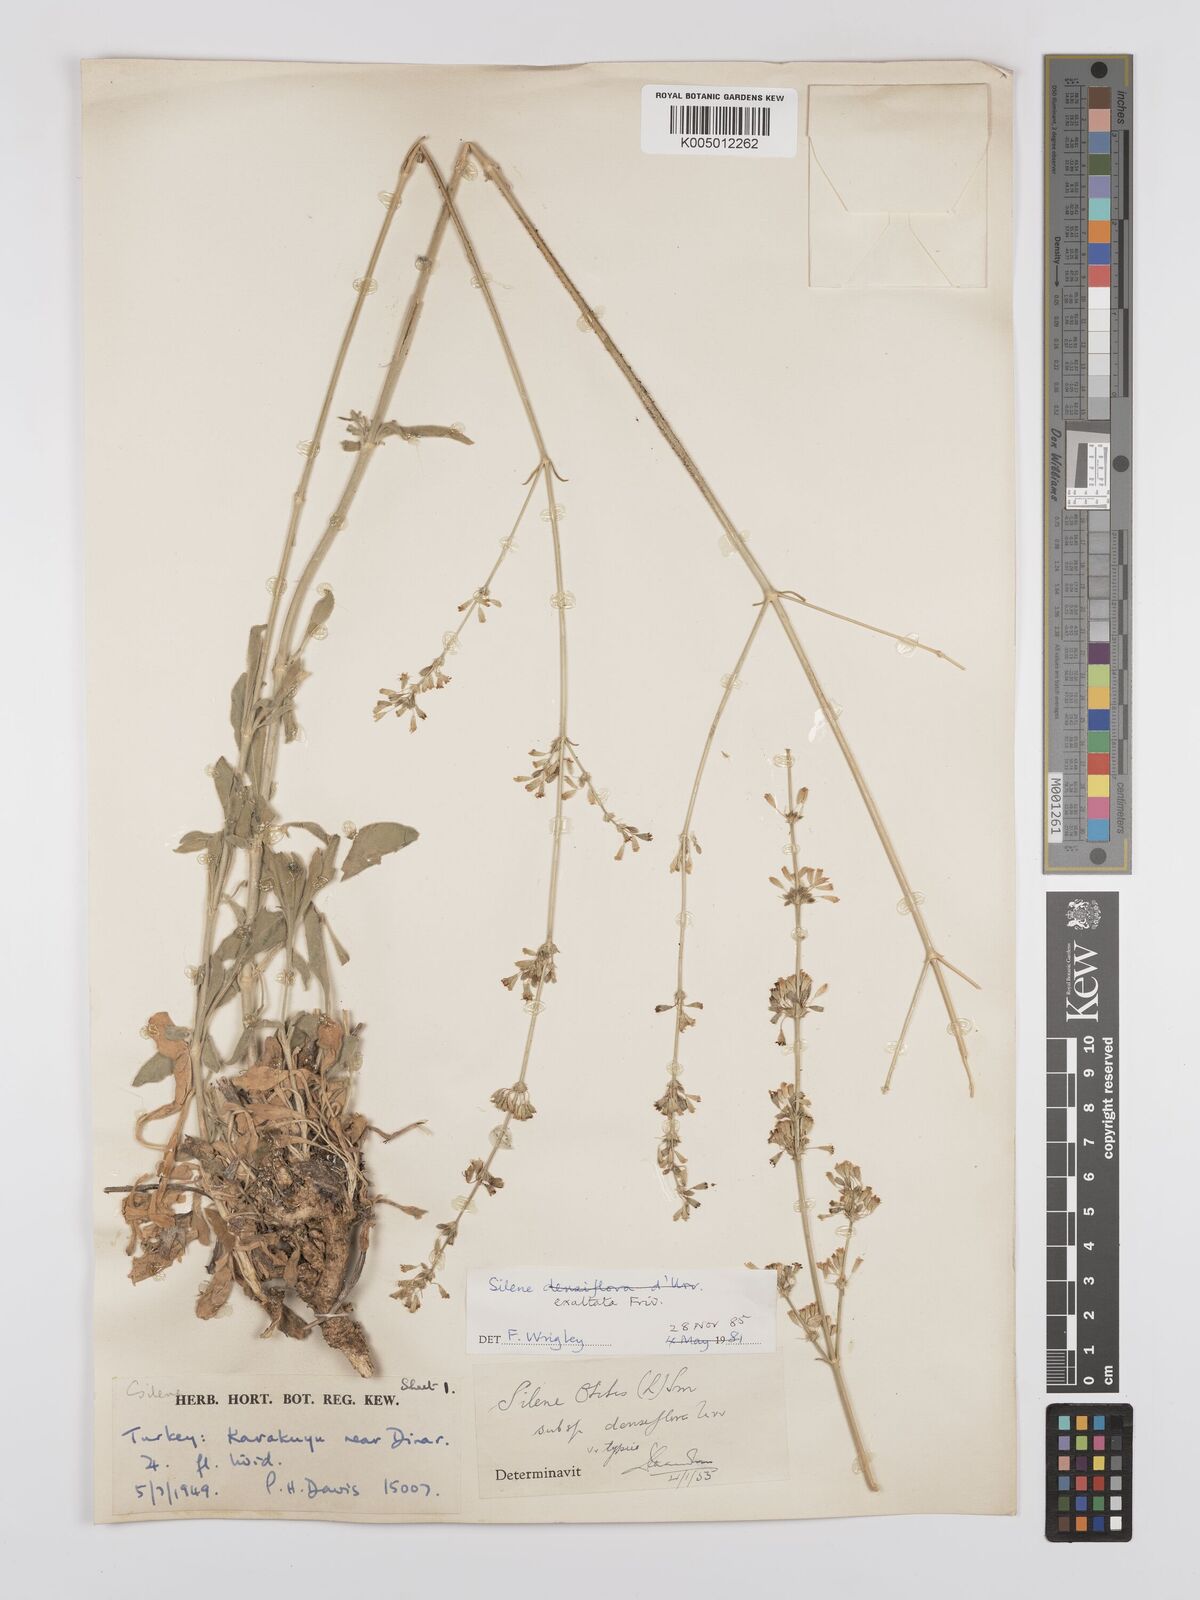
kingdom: Plantae
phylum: Tracheophyta
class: Magnoliopsida
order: Caryophyllales
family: Caryophyllaceae
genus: Silene
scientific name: Silene densiflora
